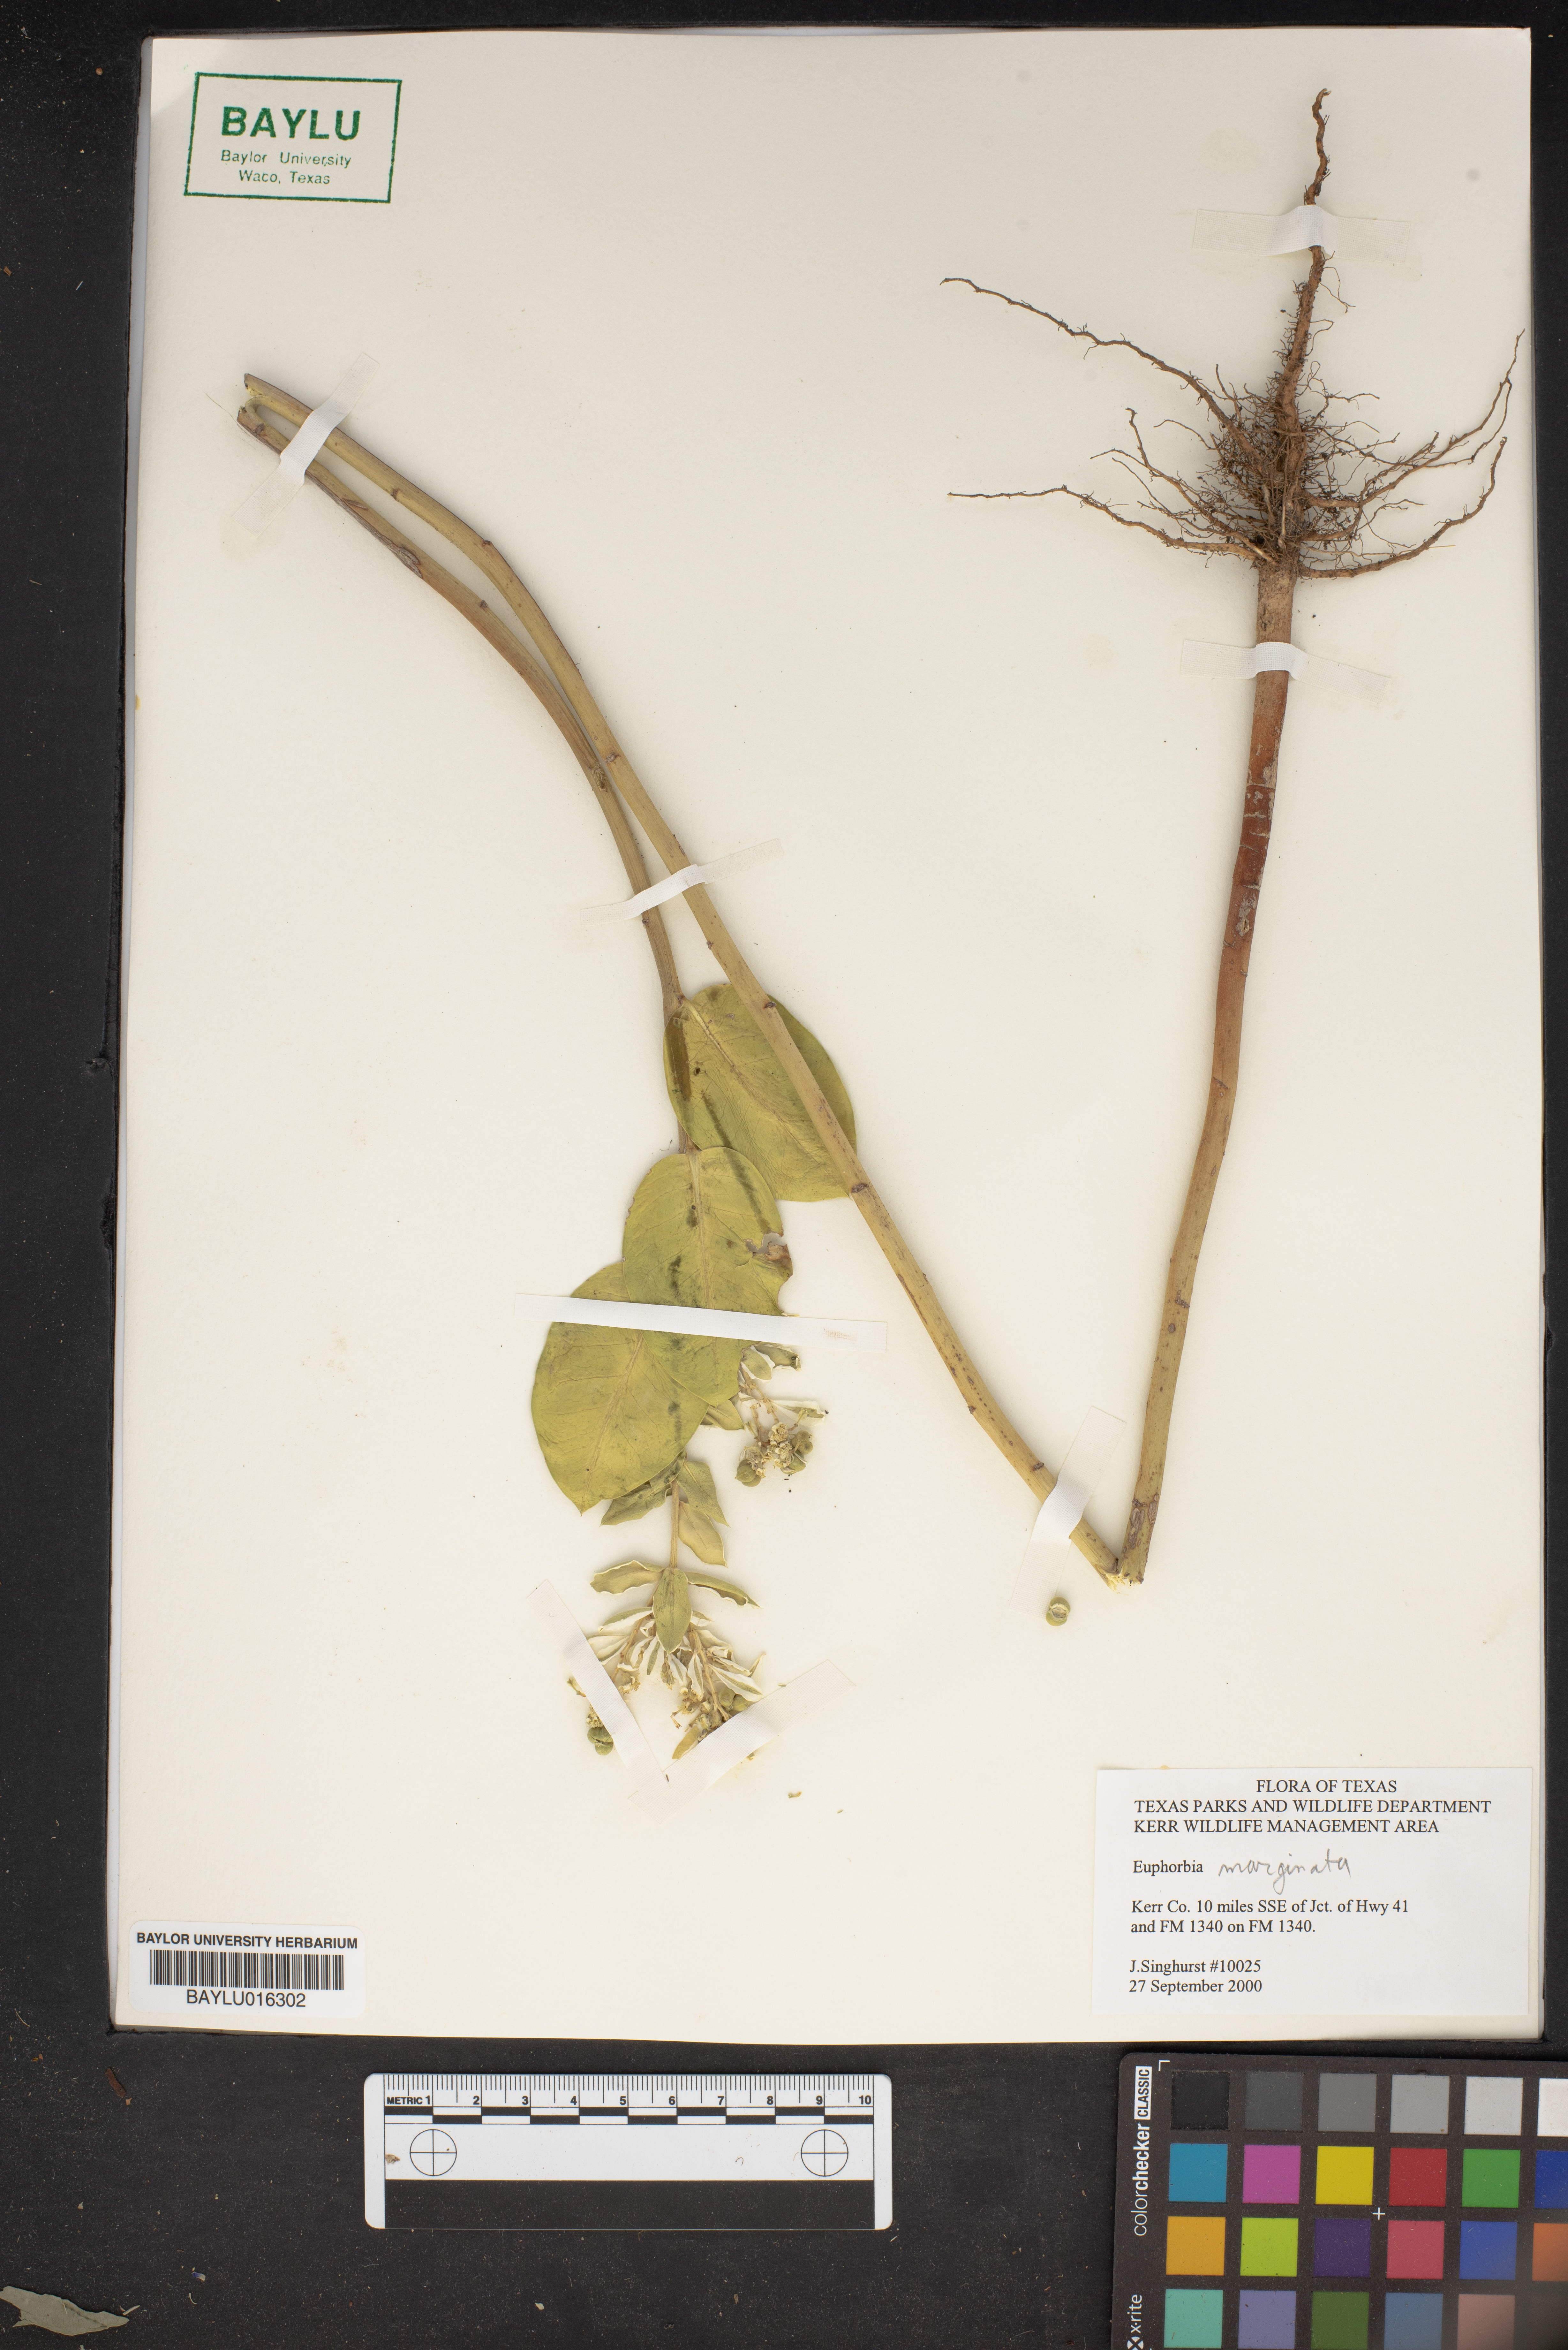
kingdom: Plantae
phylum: Tracheophyta
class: Magnoliopsida
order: Malpighiales
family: Euphorbiaceae
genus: Euphorbia
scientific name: Euphorbia marginata
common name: Ghostweed
